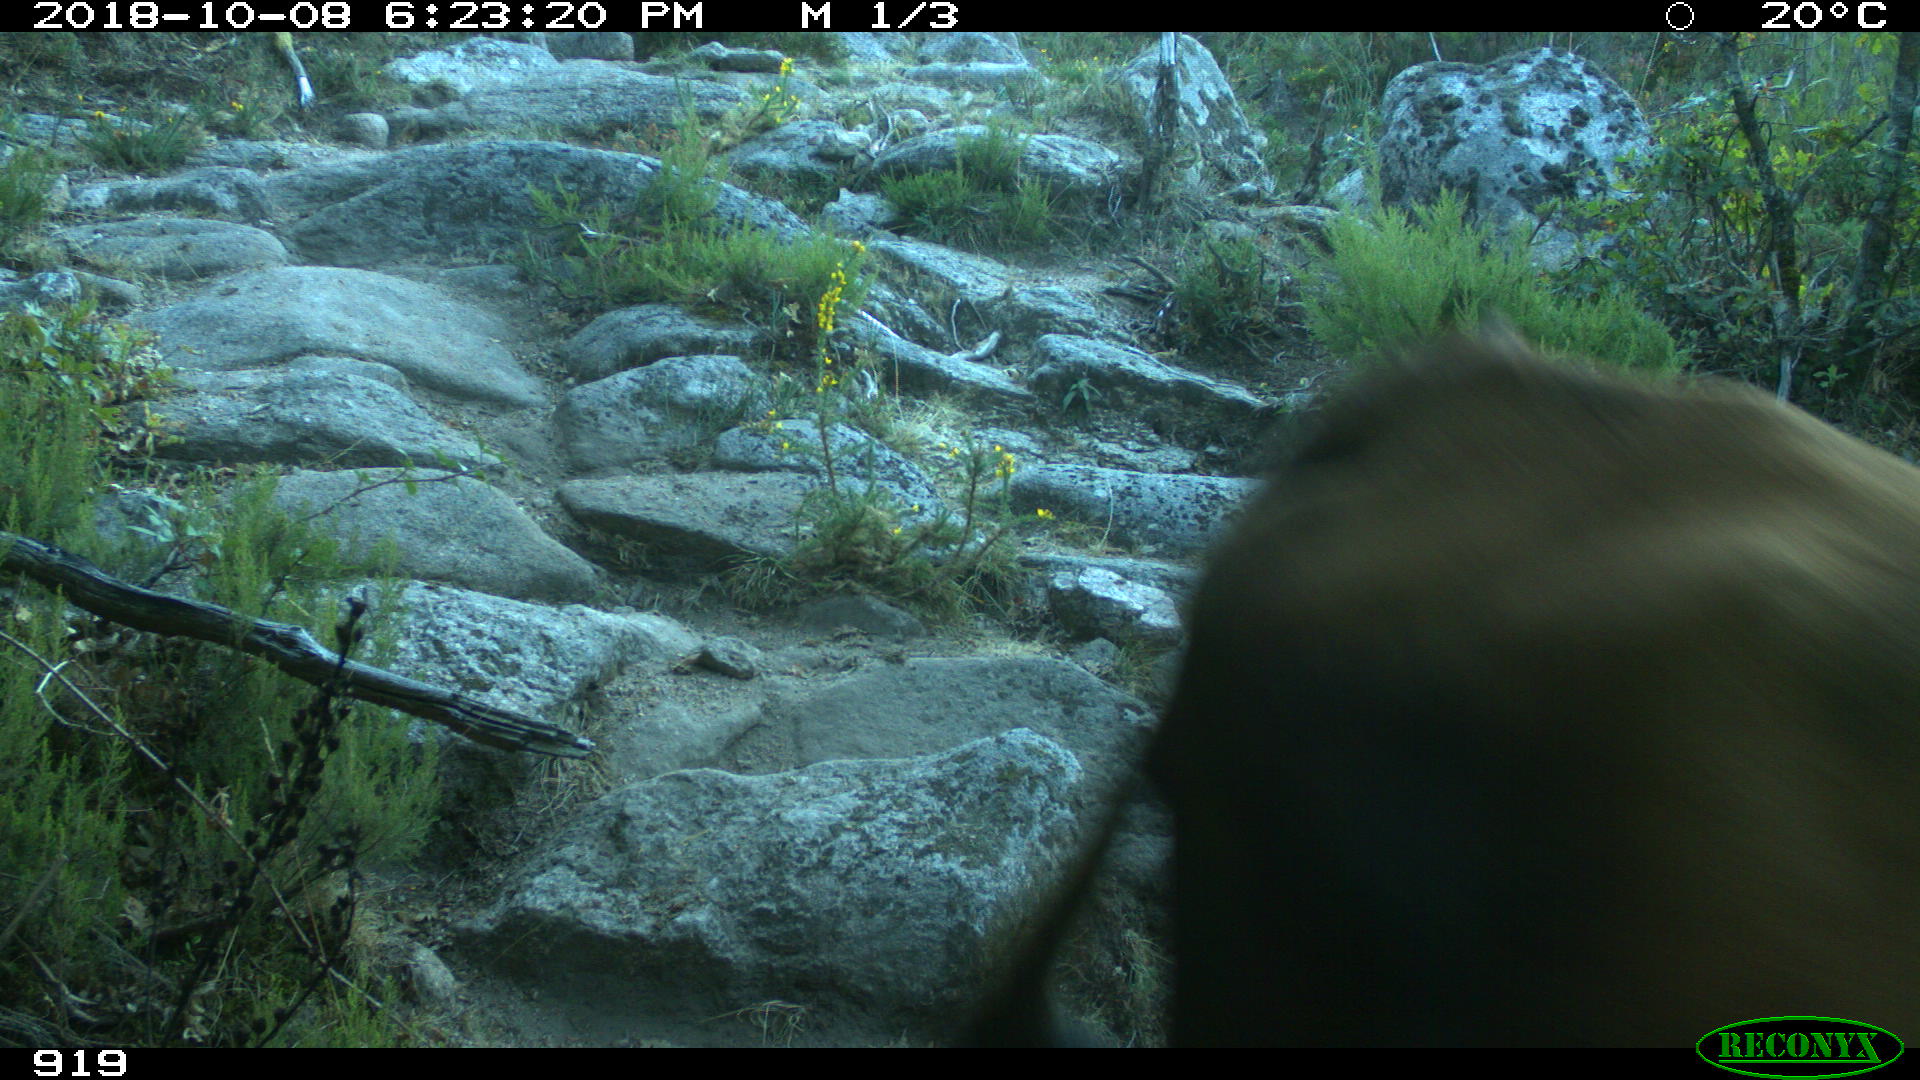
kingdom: Animalia
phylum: Chordata
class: Mammalia
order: Artiodactyla
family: Bovidae
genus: Bos
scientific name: Bos taurus
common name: Domesticated cattle
